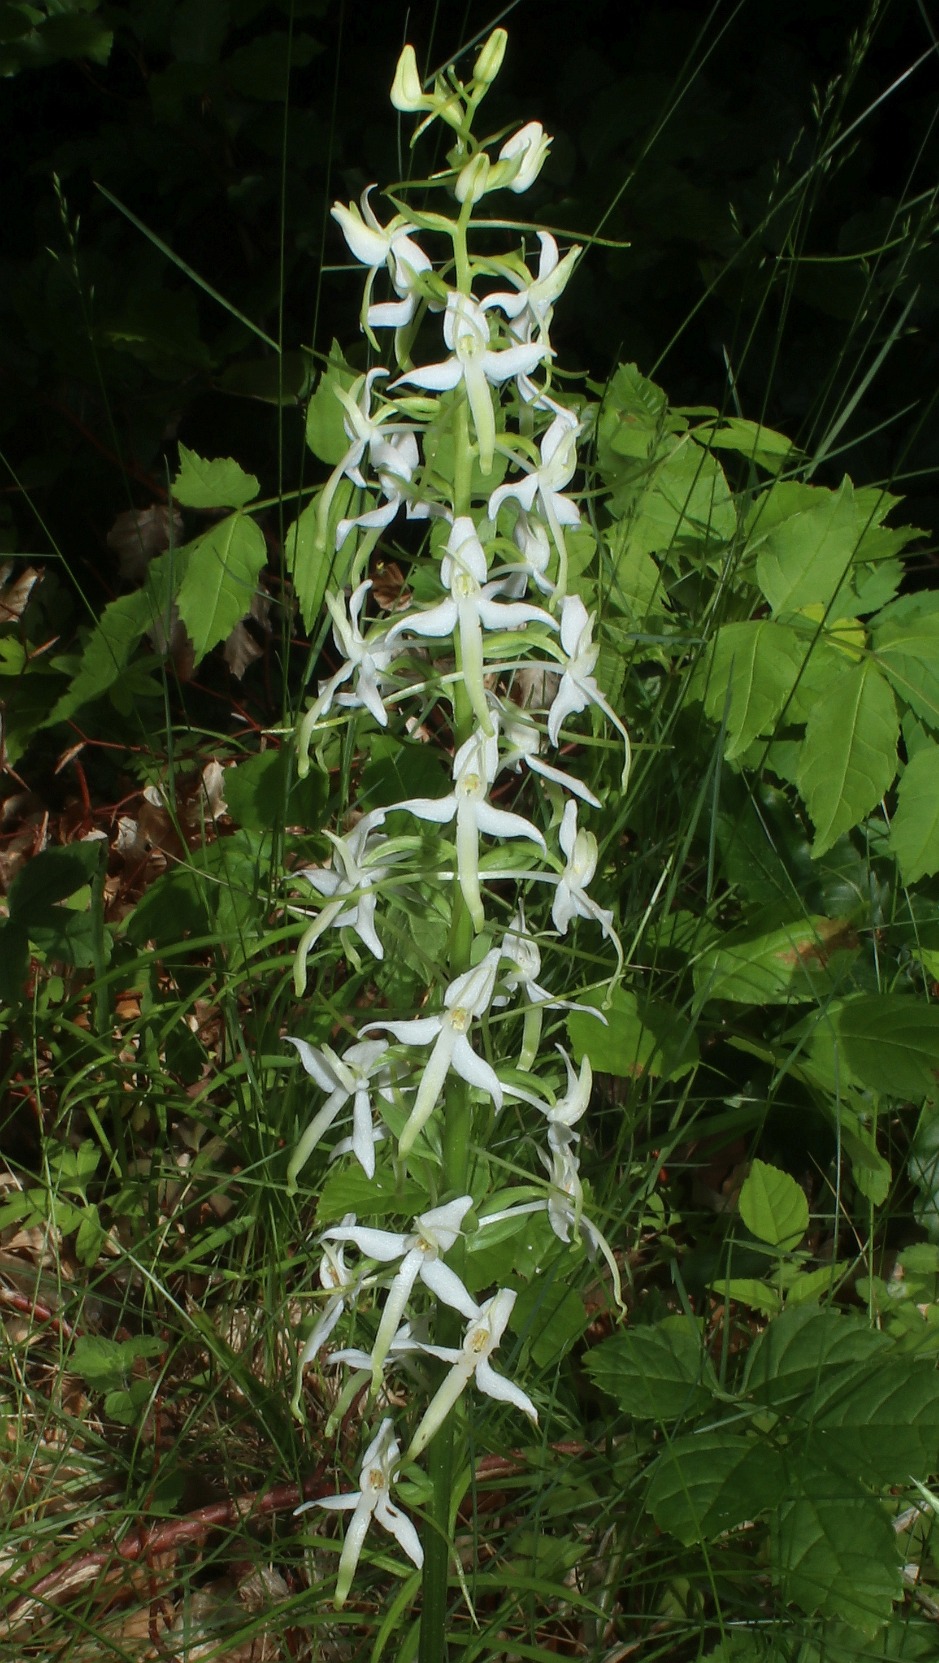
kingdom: Plantae
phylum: Tracheophyta
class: Liliopsida
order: Asparagales
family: Orchidaceae
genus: Platanthera
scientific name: Platanthera bifolia
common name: Langsporet gøgelilje
